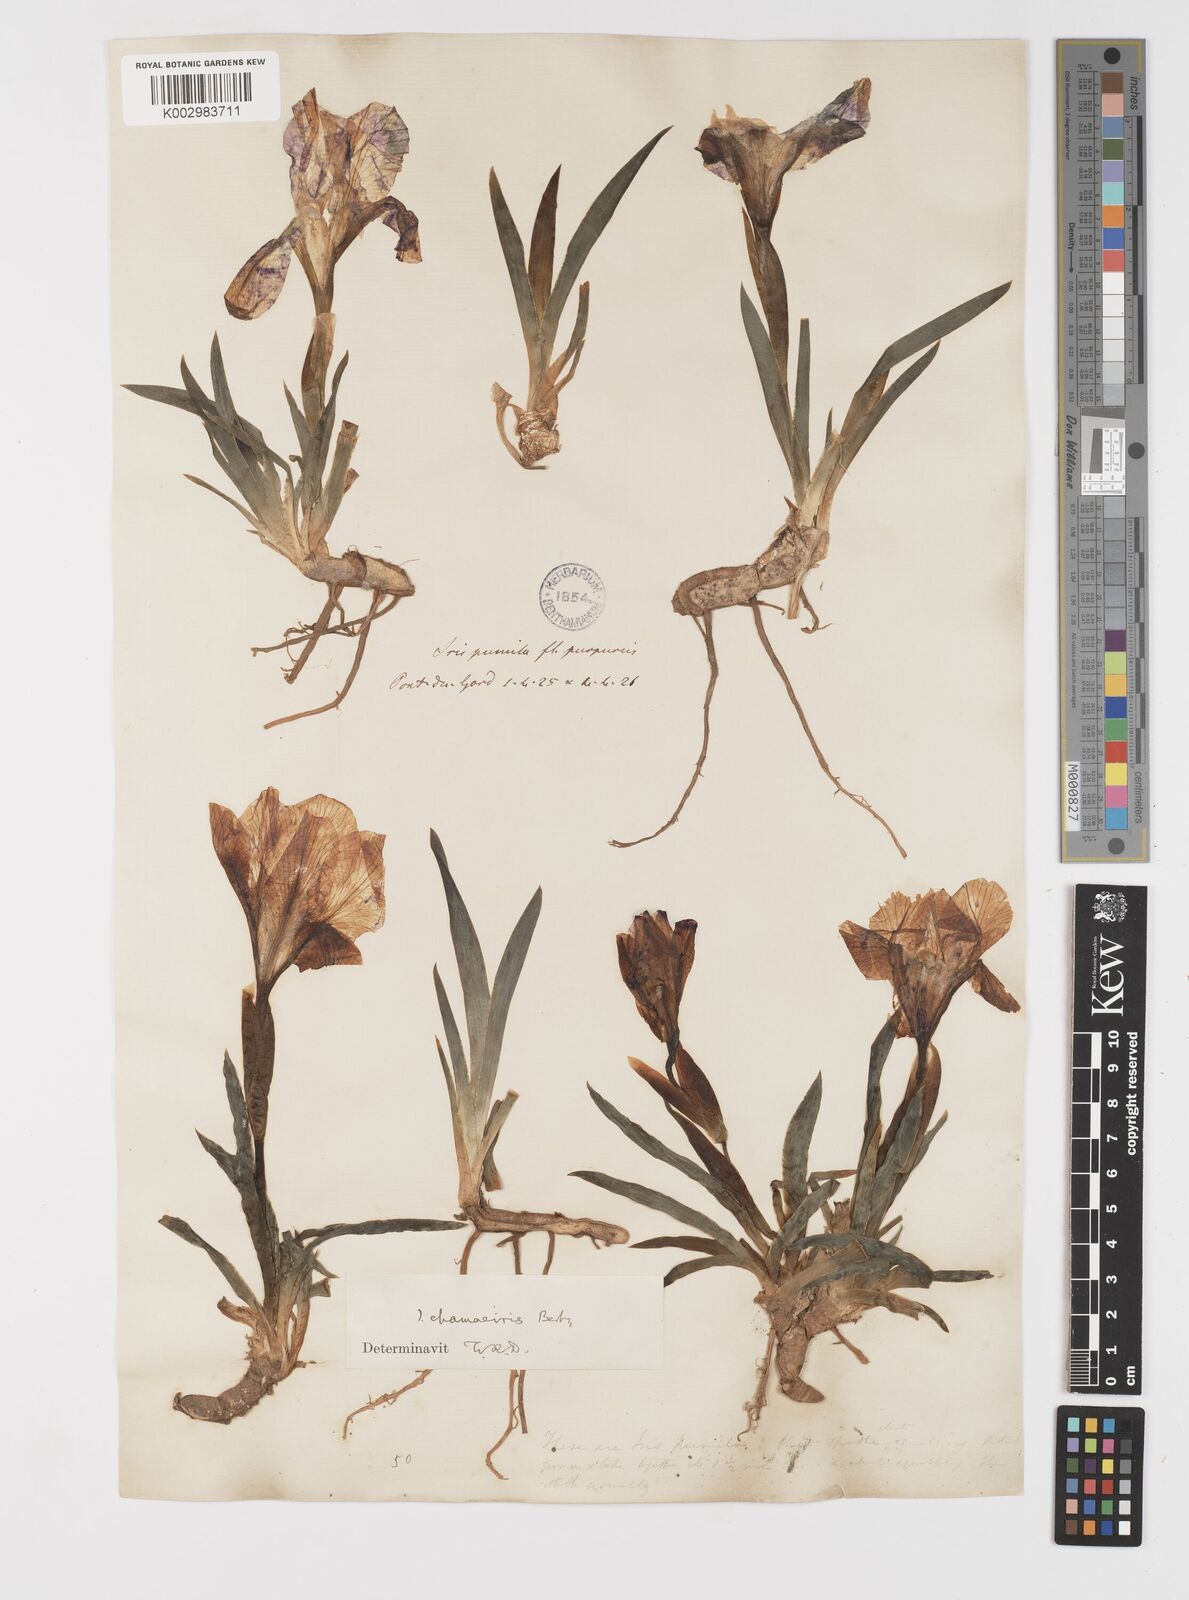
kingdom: Plantae
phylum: Tracheophyta
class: Liliopsida
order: Asparagales
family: Iridaceae
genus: Iris
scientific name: Iris lutescens
